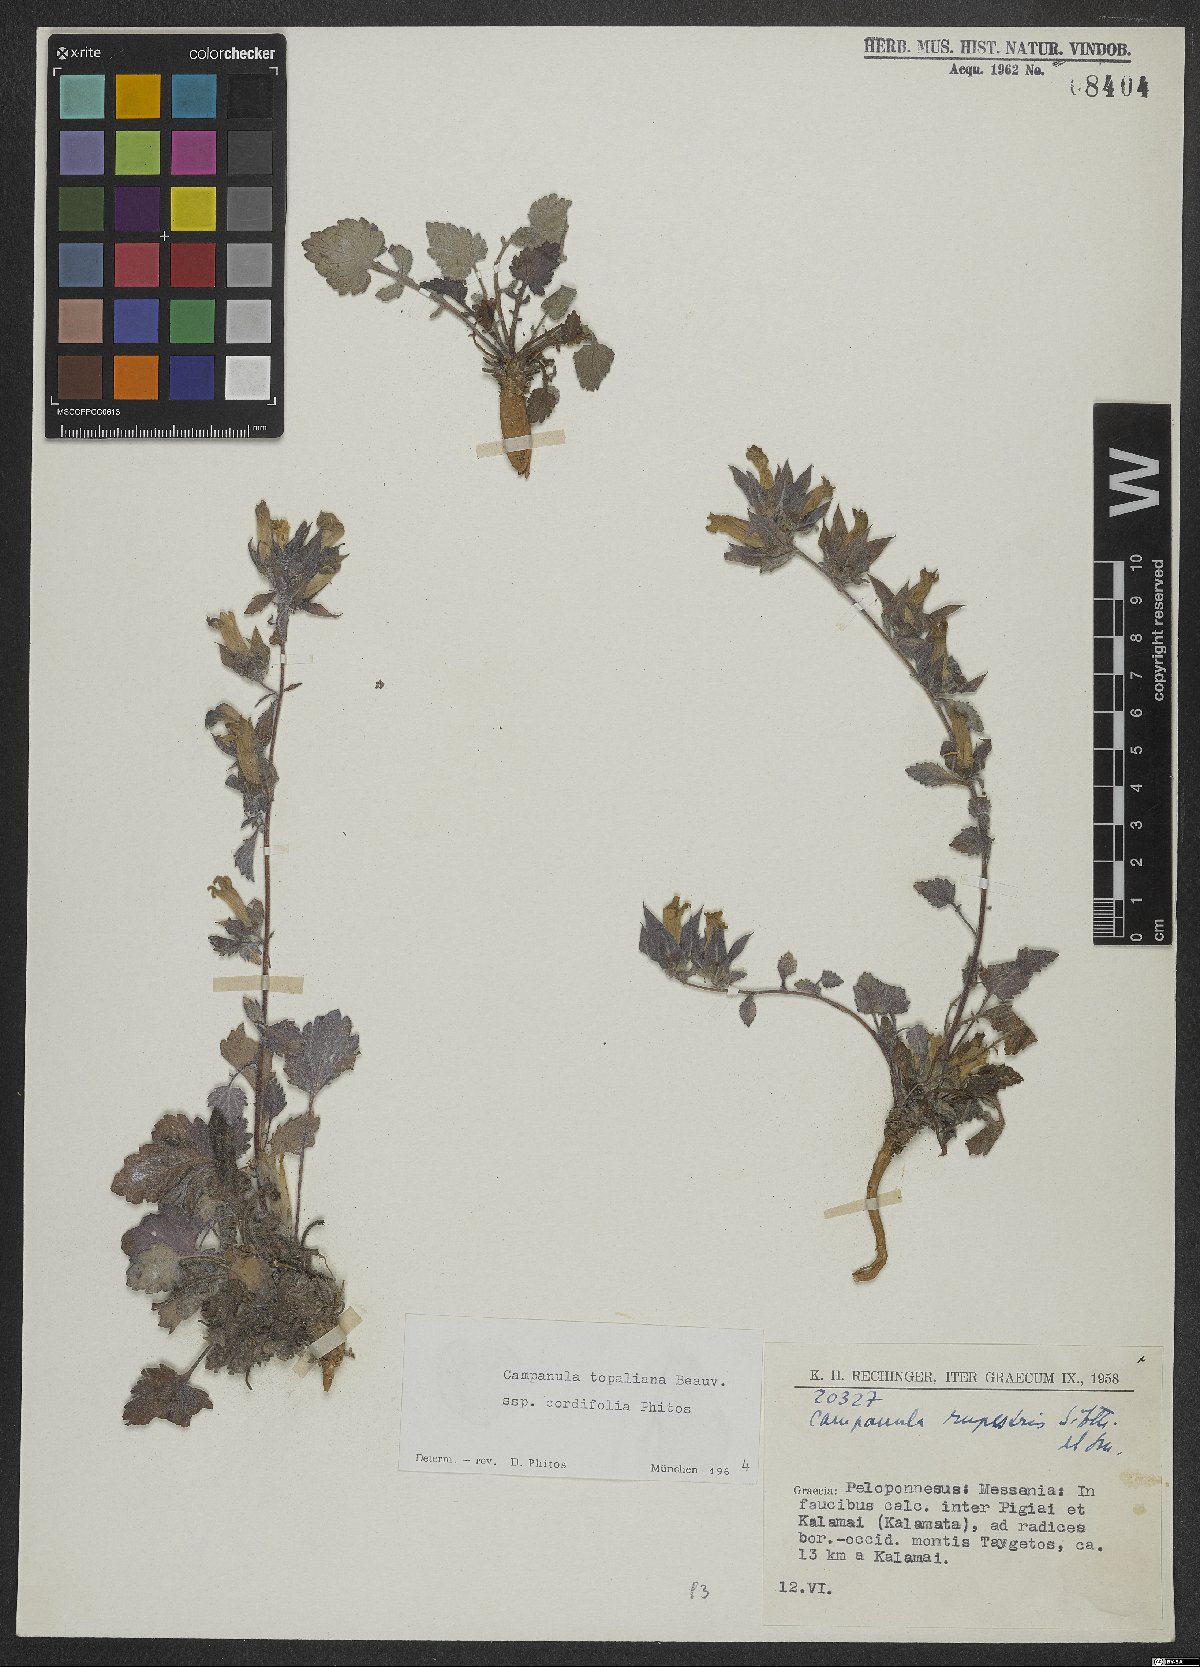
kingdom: Plantae
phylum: Tracheophyta
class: Magnoliopsida
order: Asterales
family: Campanulaceae
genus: Campanula
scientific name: Campanula topaliana
